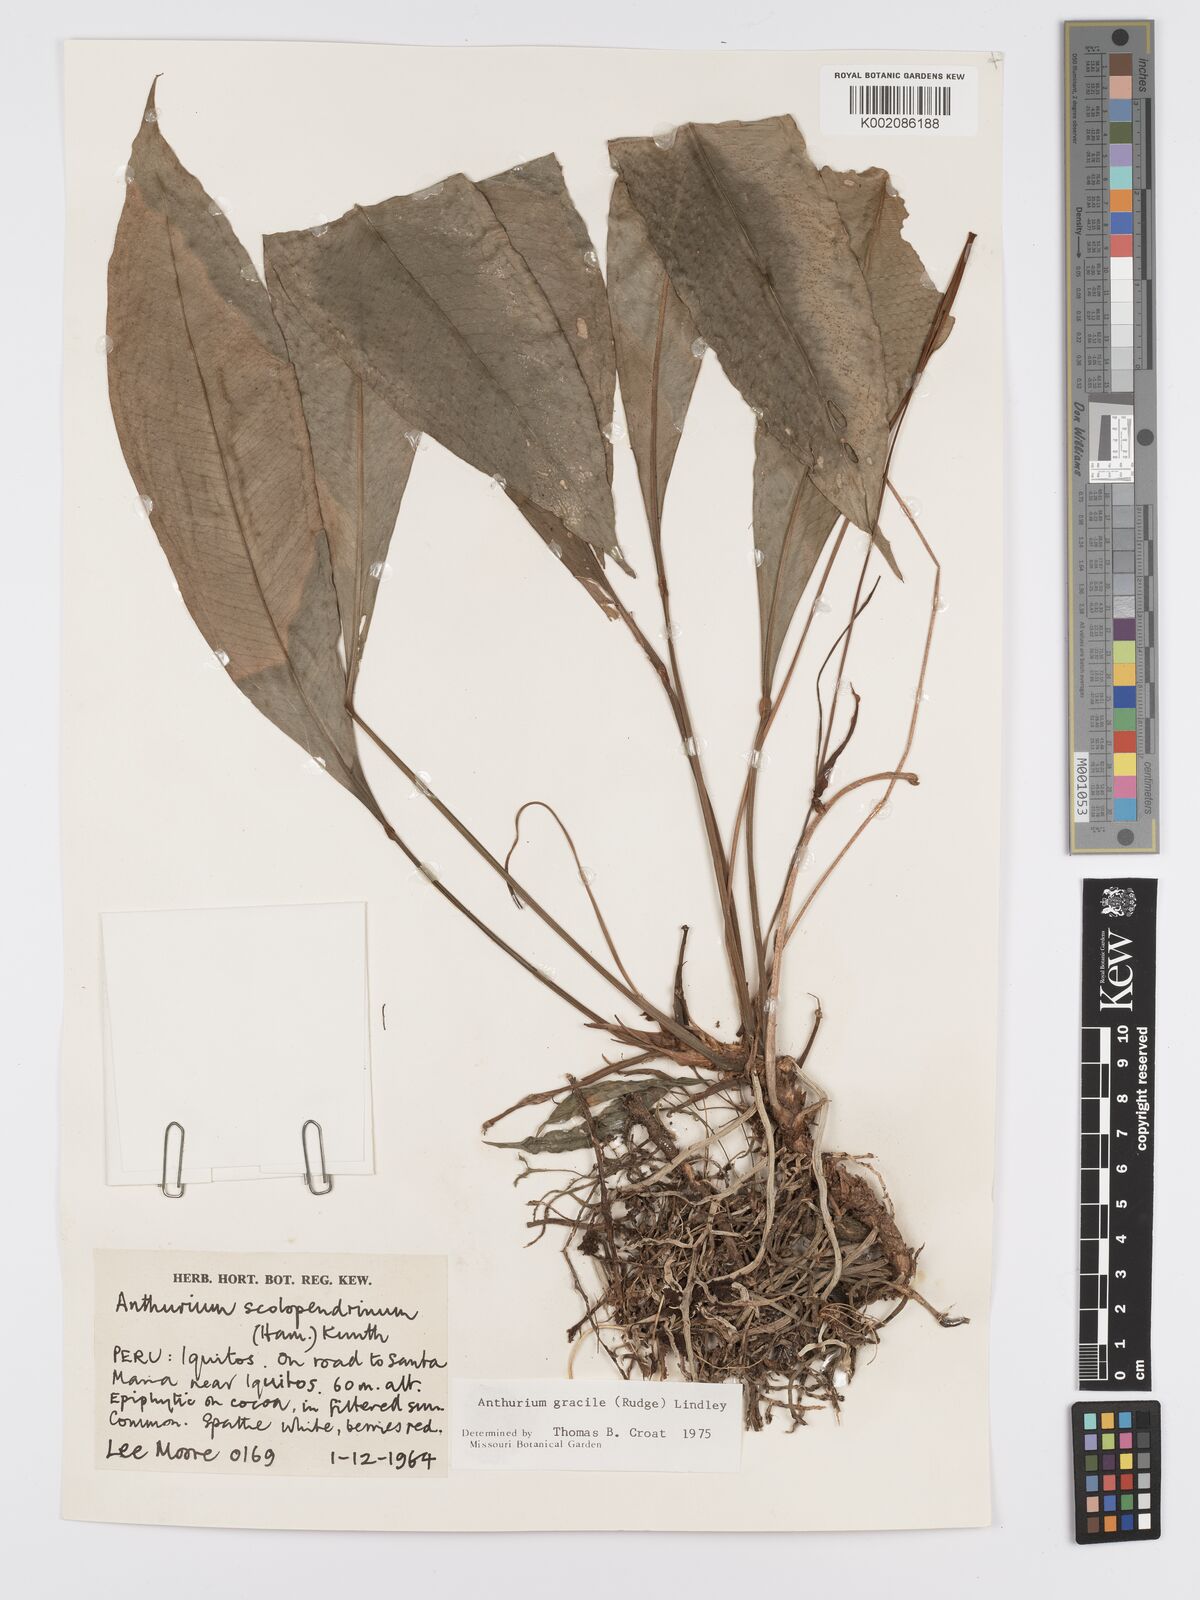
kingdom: Plantae
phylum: Tracheophyta
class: Liliopsida
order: Alismatales
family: Araceae
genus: Anthurium
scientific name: Anthurium gracile
